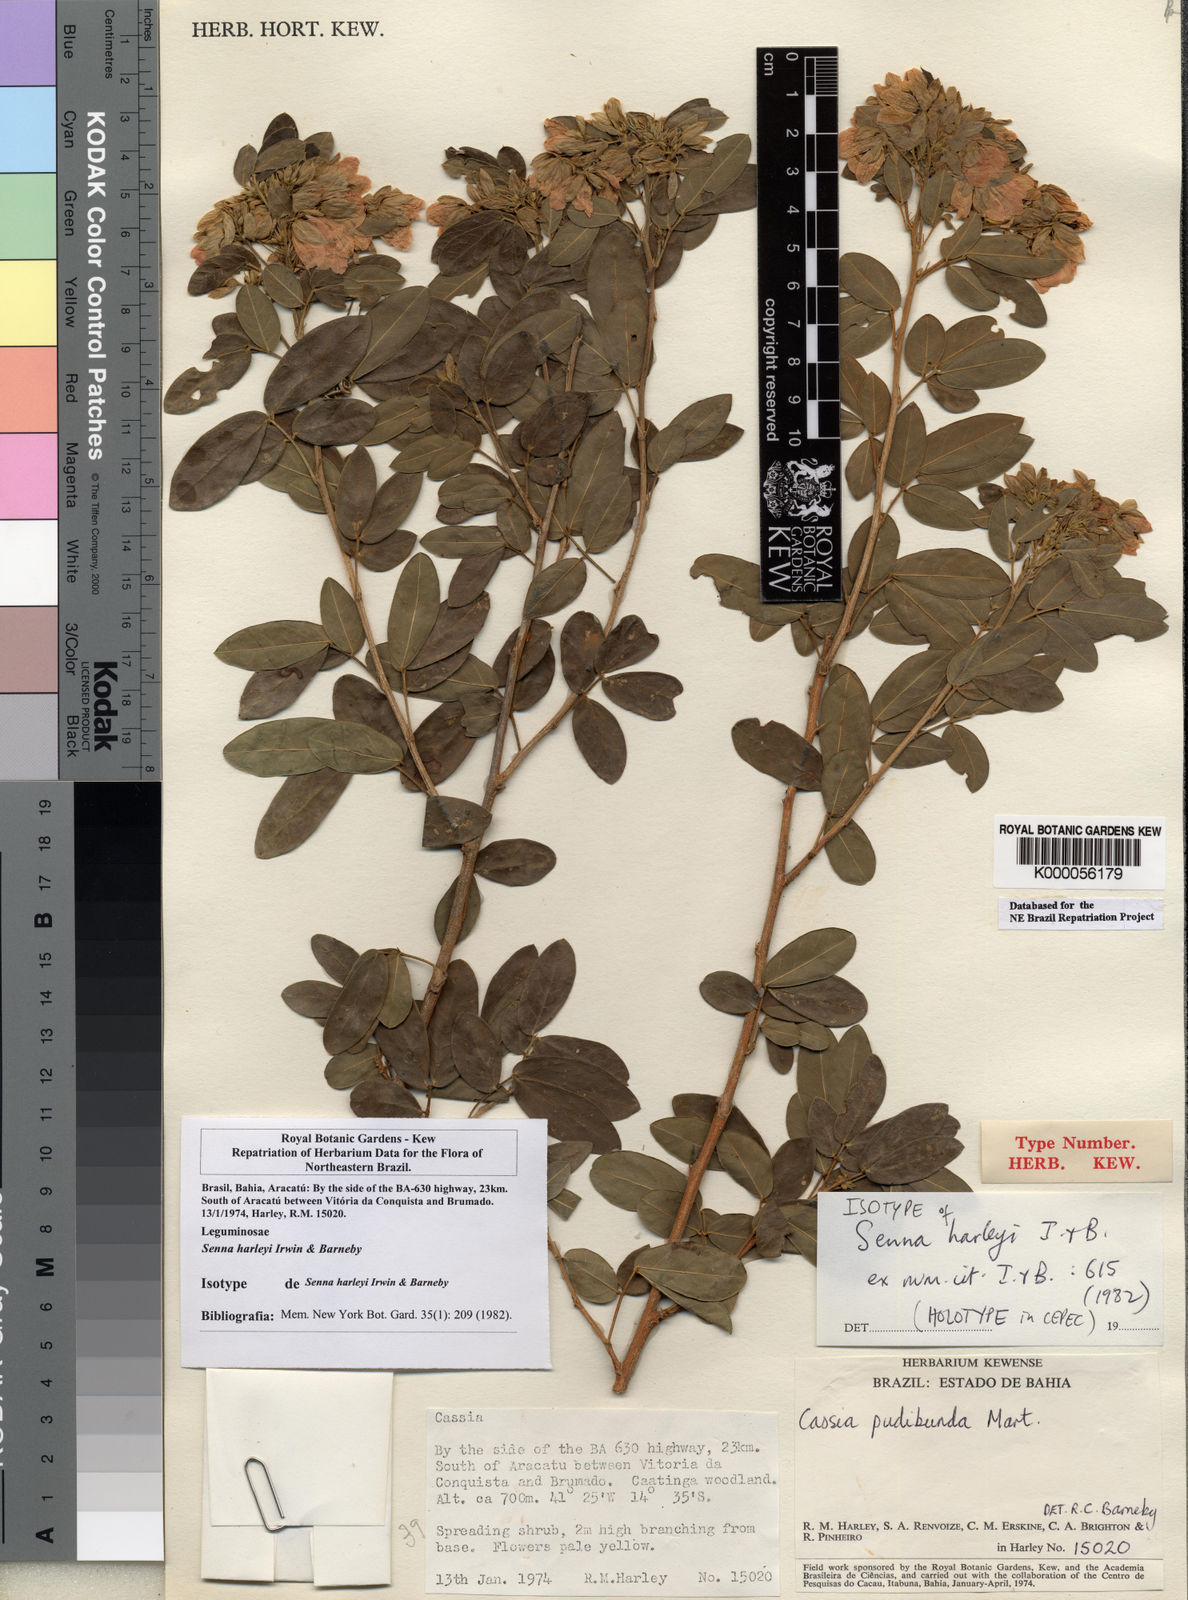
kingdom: Plantae
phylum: Tracheophyta
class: Magnoliopsida
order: Fabales
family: Fabaceae
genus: Senna
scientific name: Senna harleyi
